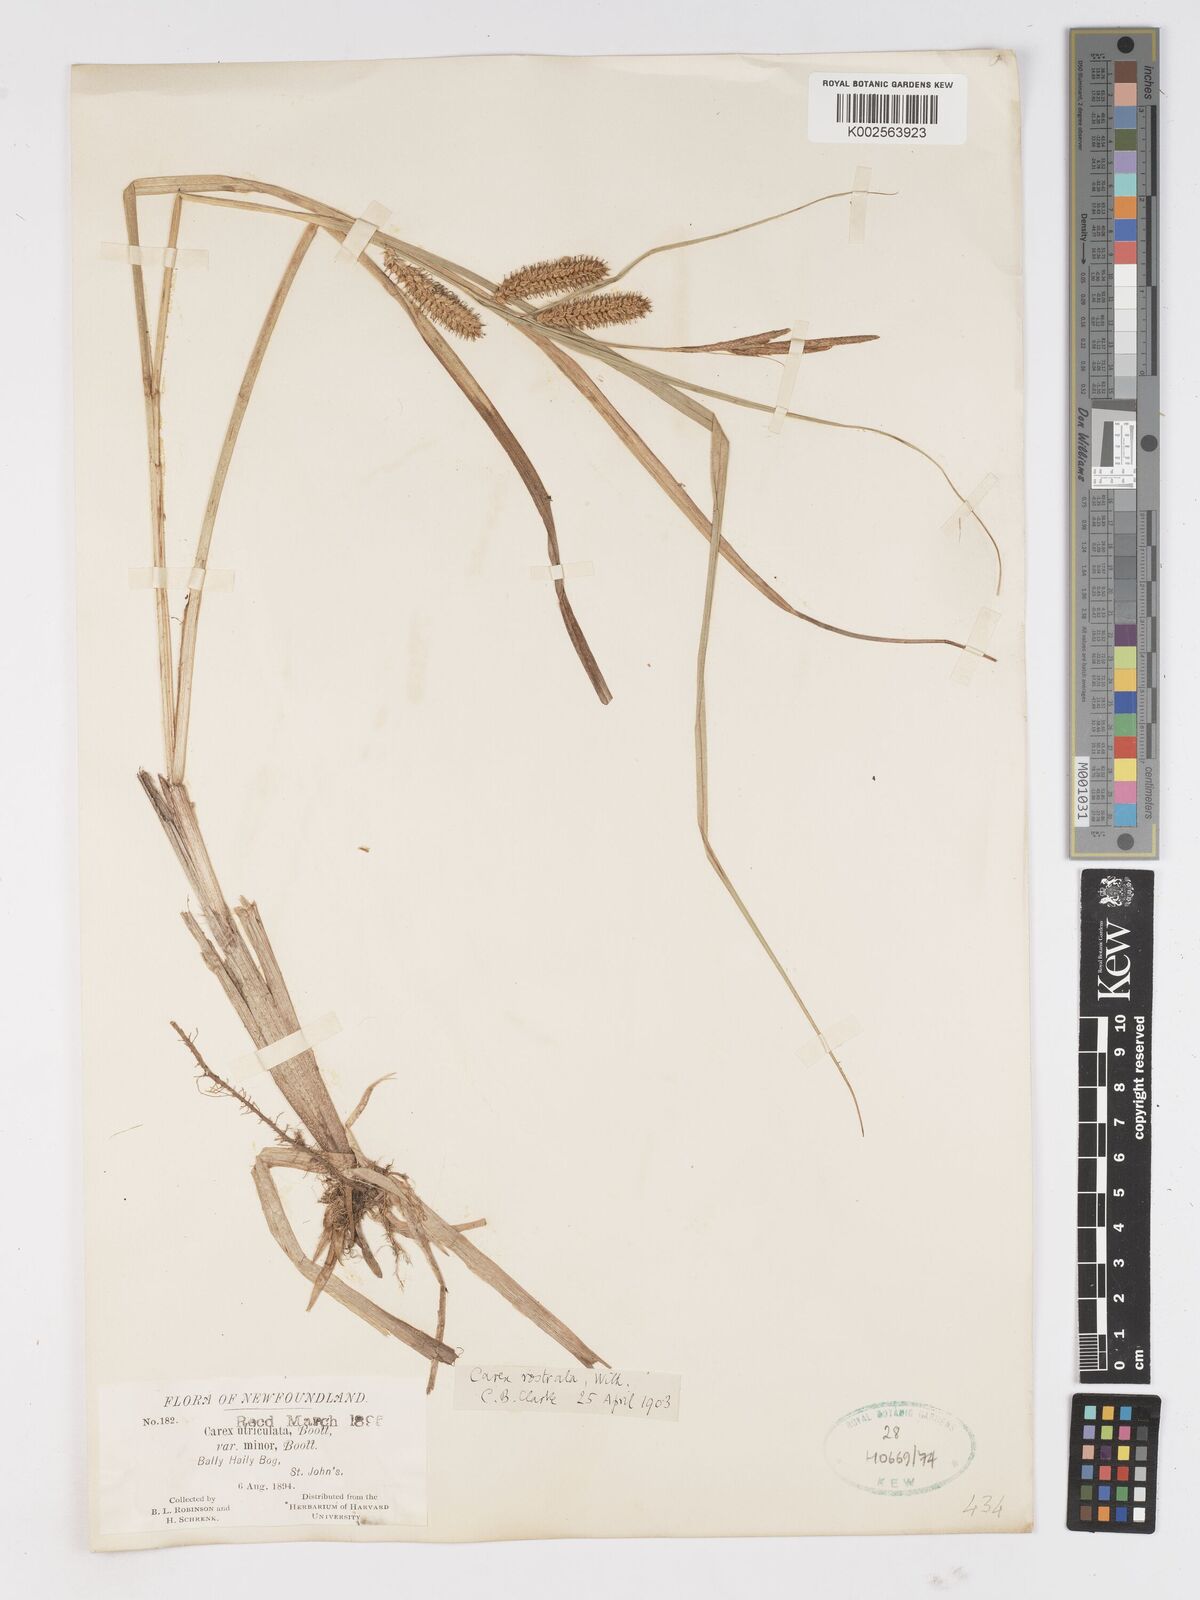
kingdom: Plantae
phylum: Tracheophyta
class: Liliopsida
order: Poales
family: Cyperaceae
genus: Carex
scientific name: Carex rostrata
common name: Bottle sedge
